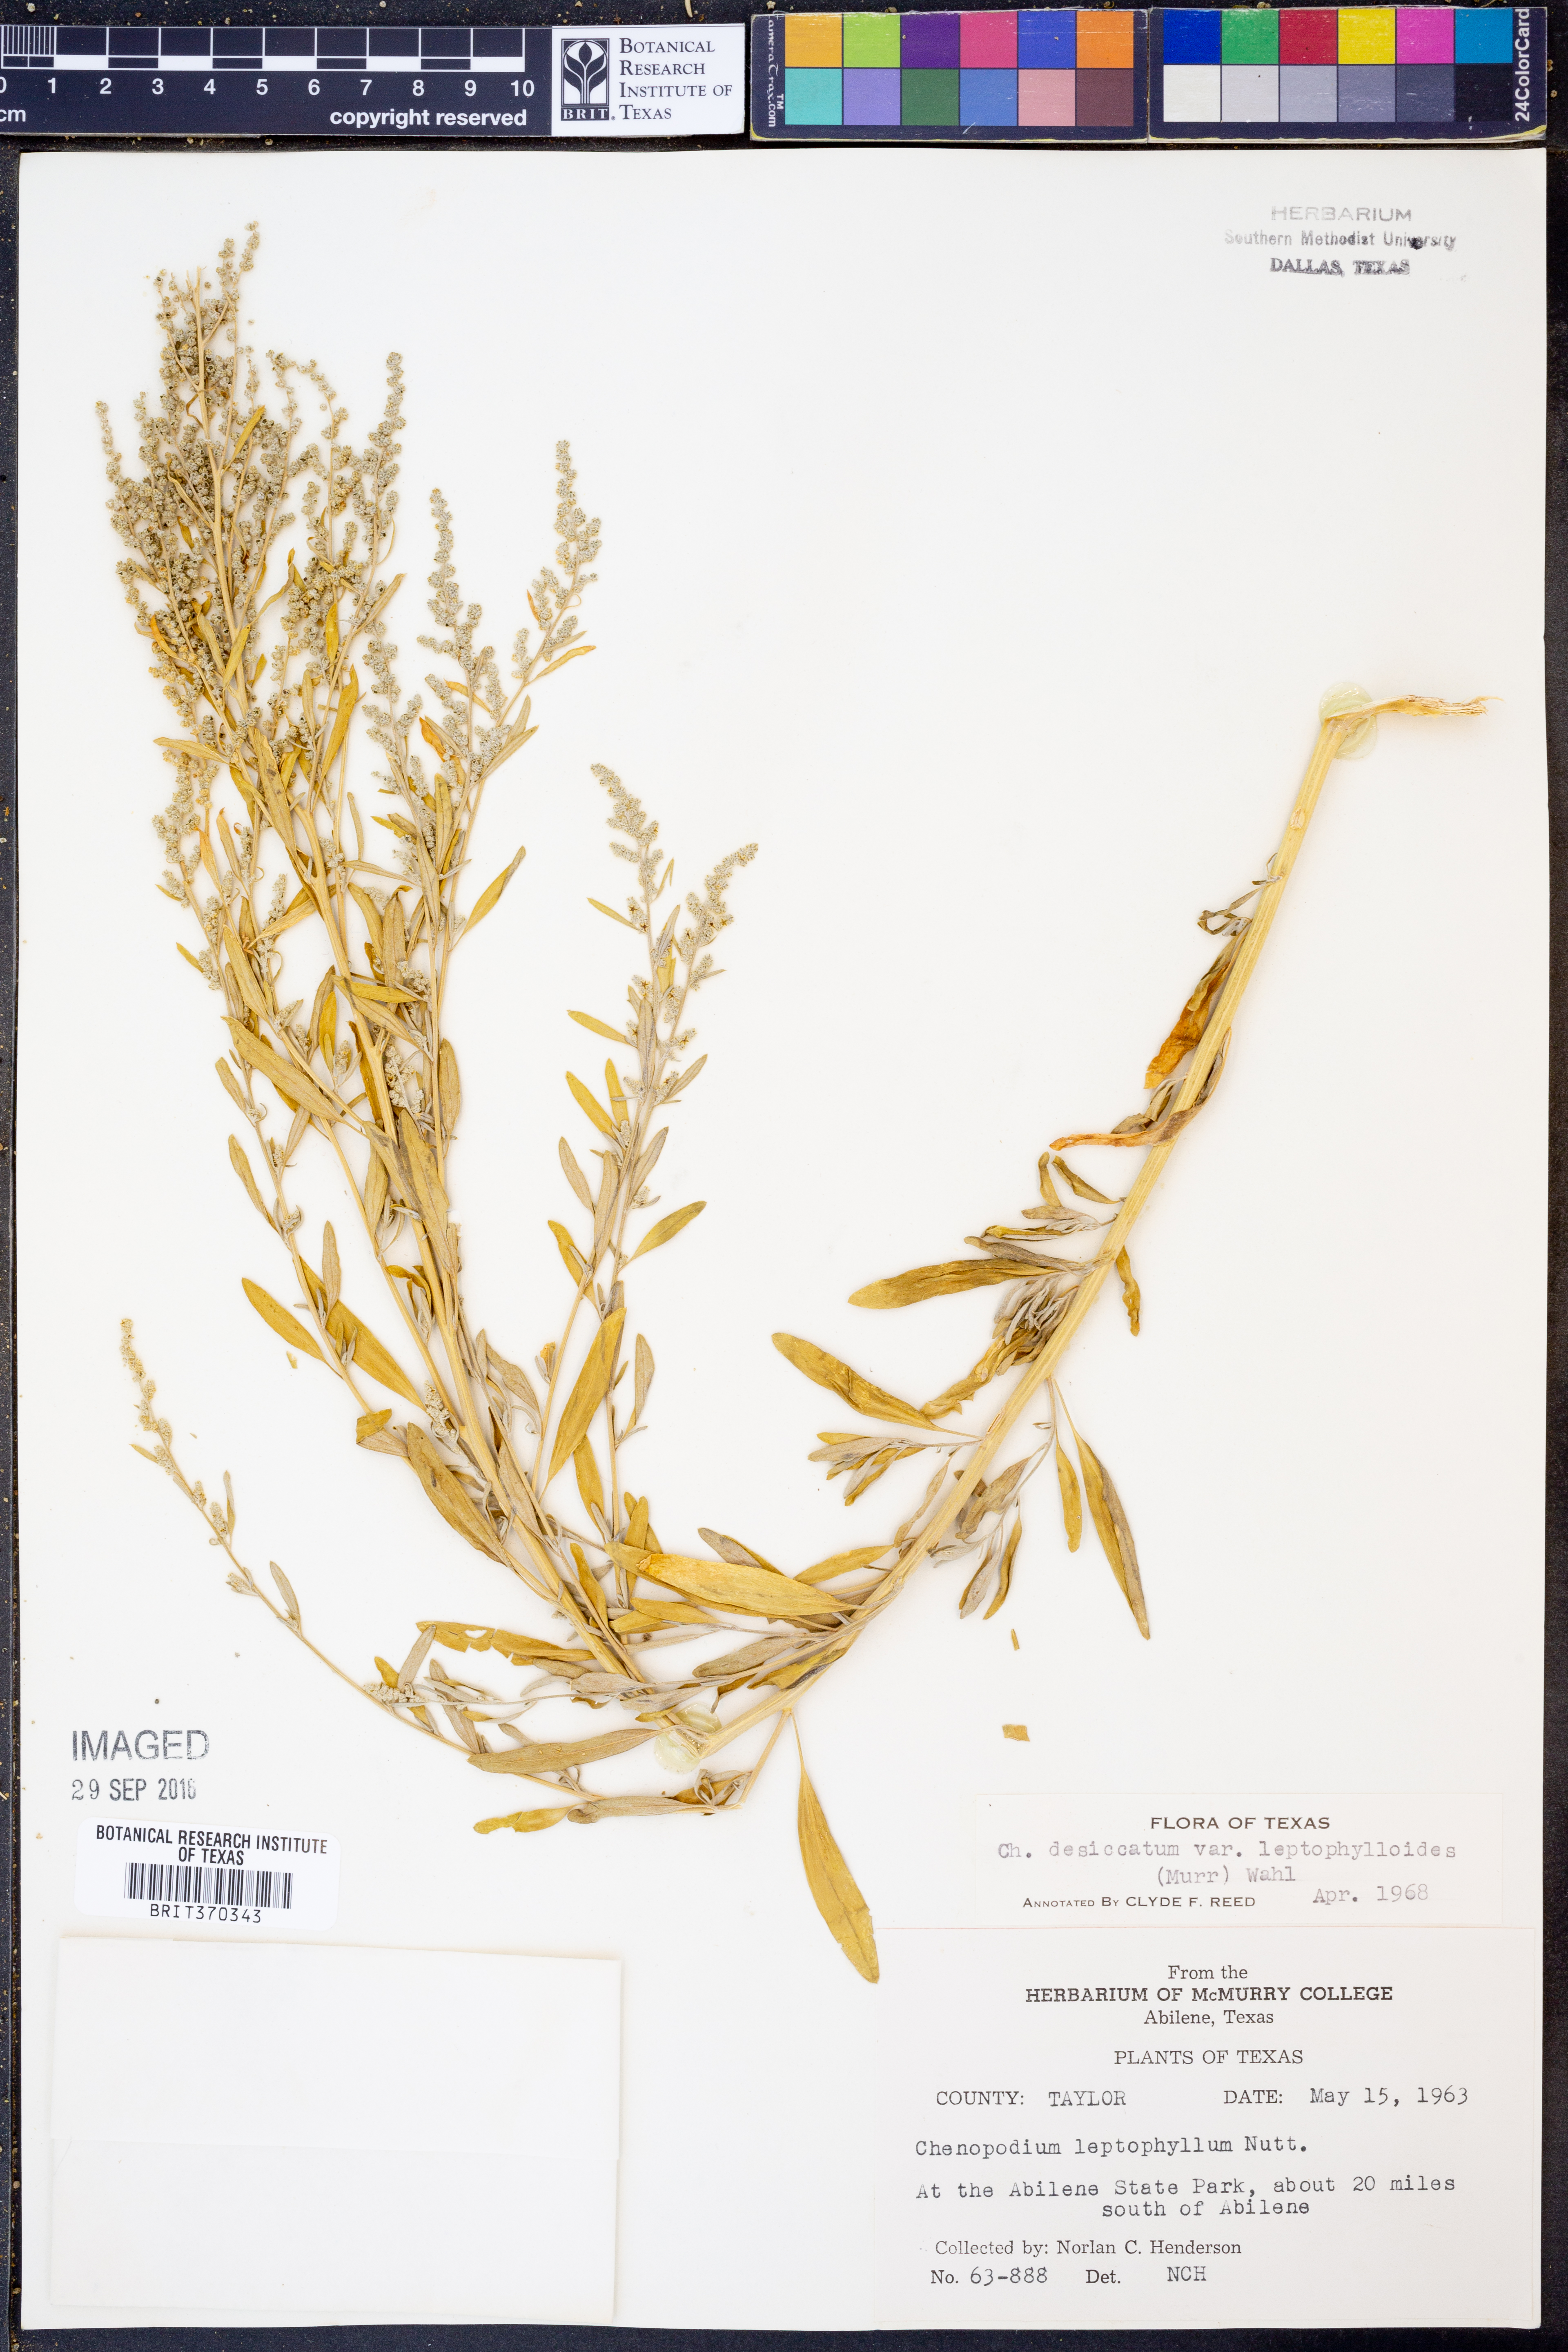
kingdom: Plantae
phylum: Tracheophyta
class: Magnoliopsida
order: Caryophyllales
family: Amaranthaceae
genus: Chenopodium
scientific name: Chenopodium pratericola
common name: Desert goosefoot
